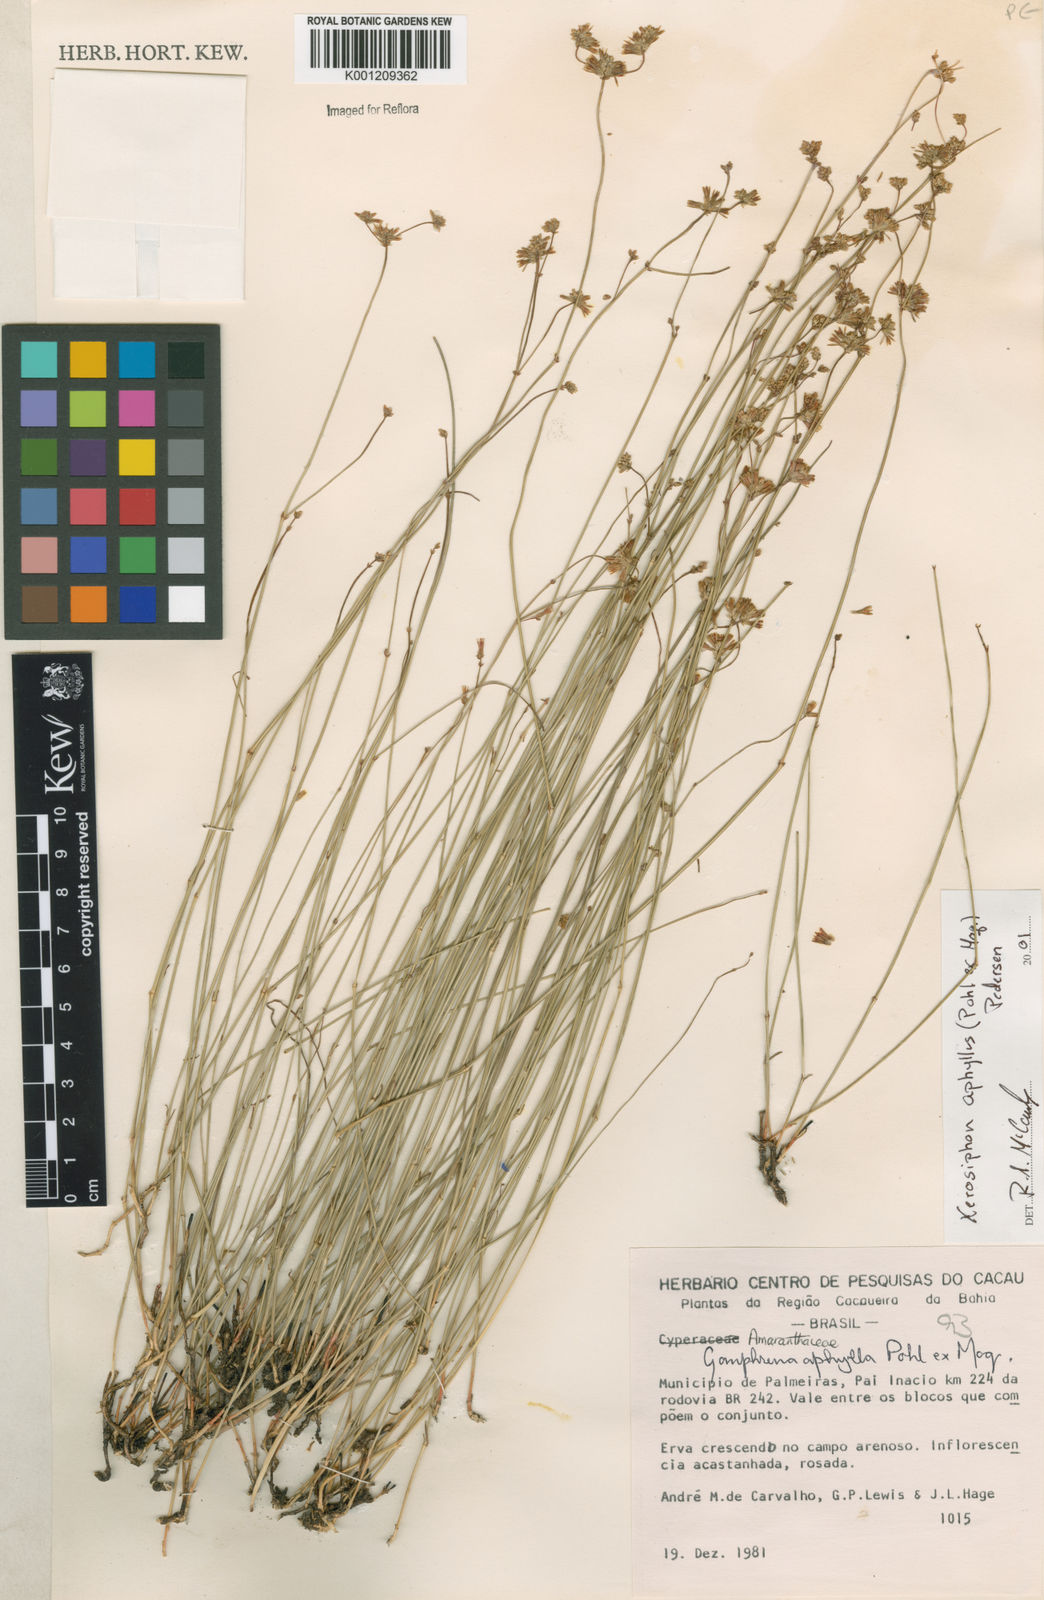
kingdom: Plantae
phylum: Tracheophyta
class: Magnoliopsida
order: Caryophyllales
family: Amaranthaceae
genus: Gomphrena
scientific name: Gomphrena aphylla
